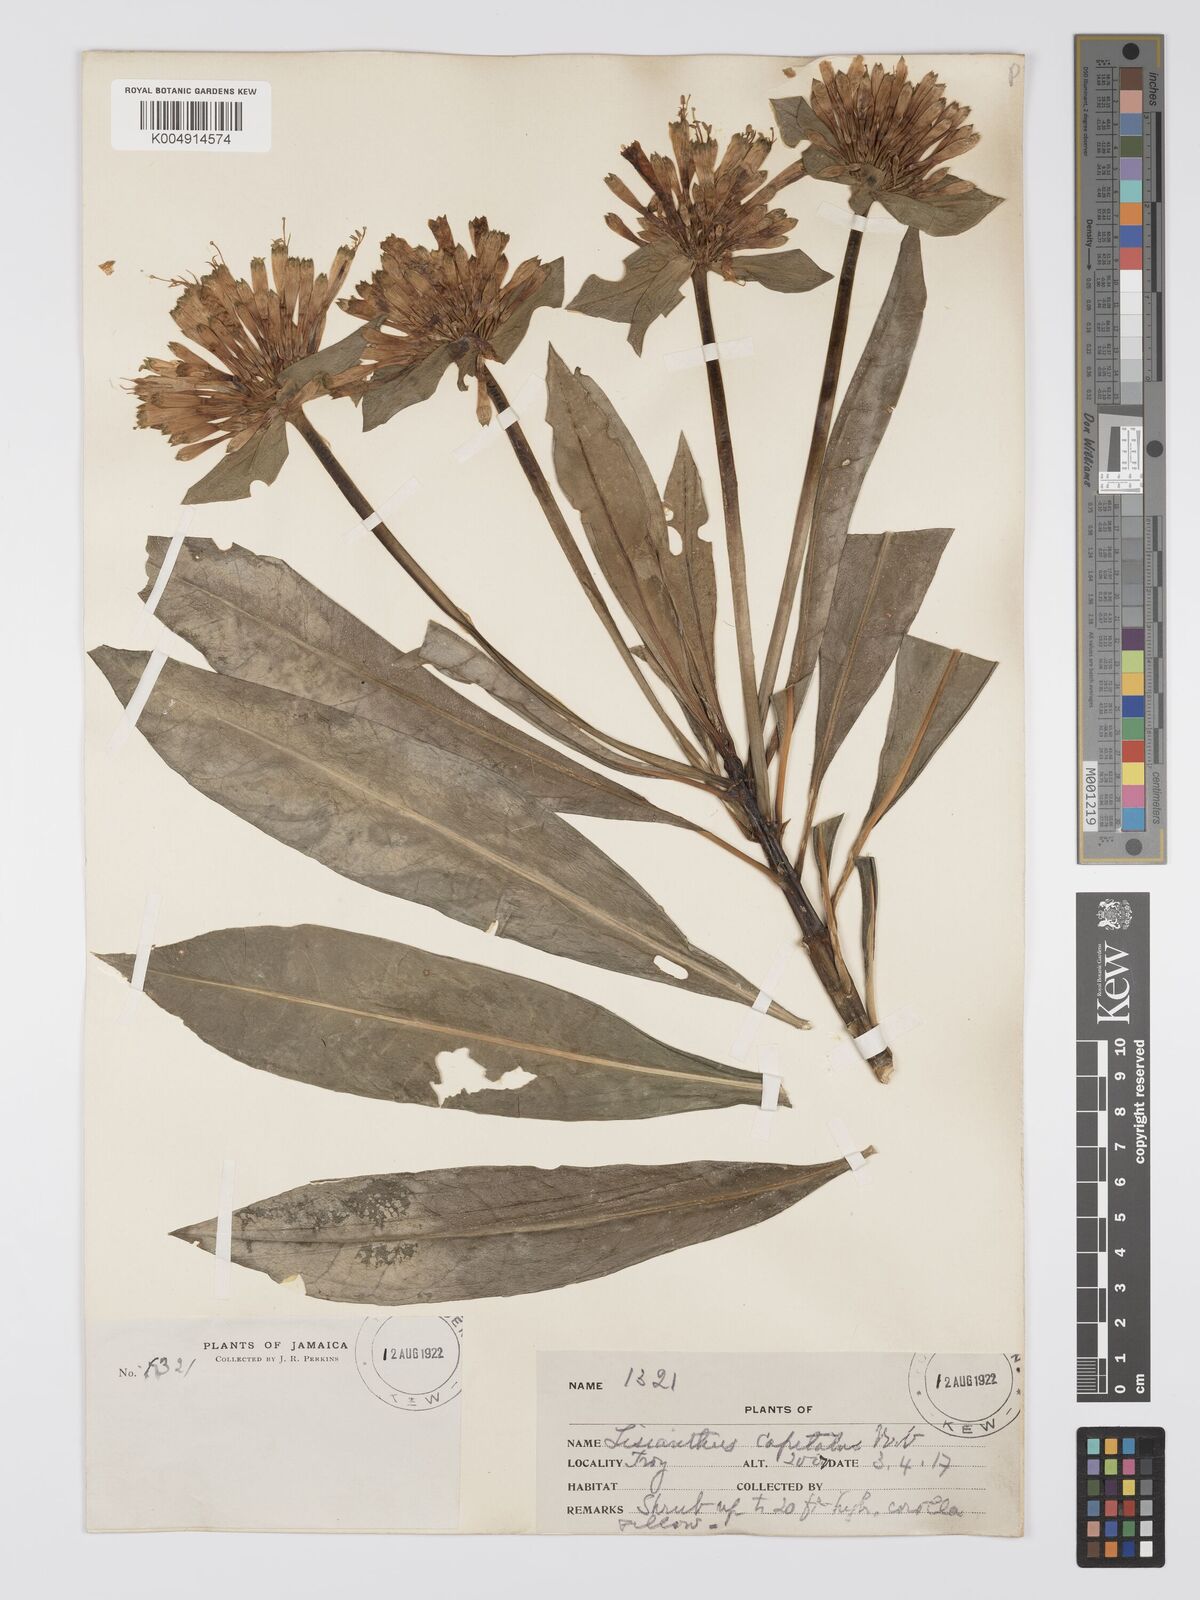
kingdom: Plantae
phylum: Tracheophyta
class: Magnoliopsida
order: Gentianales
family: Gentianaceae
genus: Lisianthius
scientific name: Lisianthius capitatus
